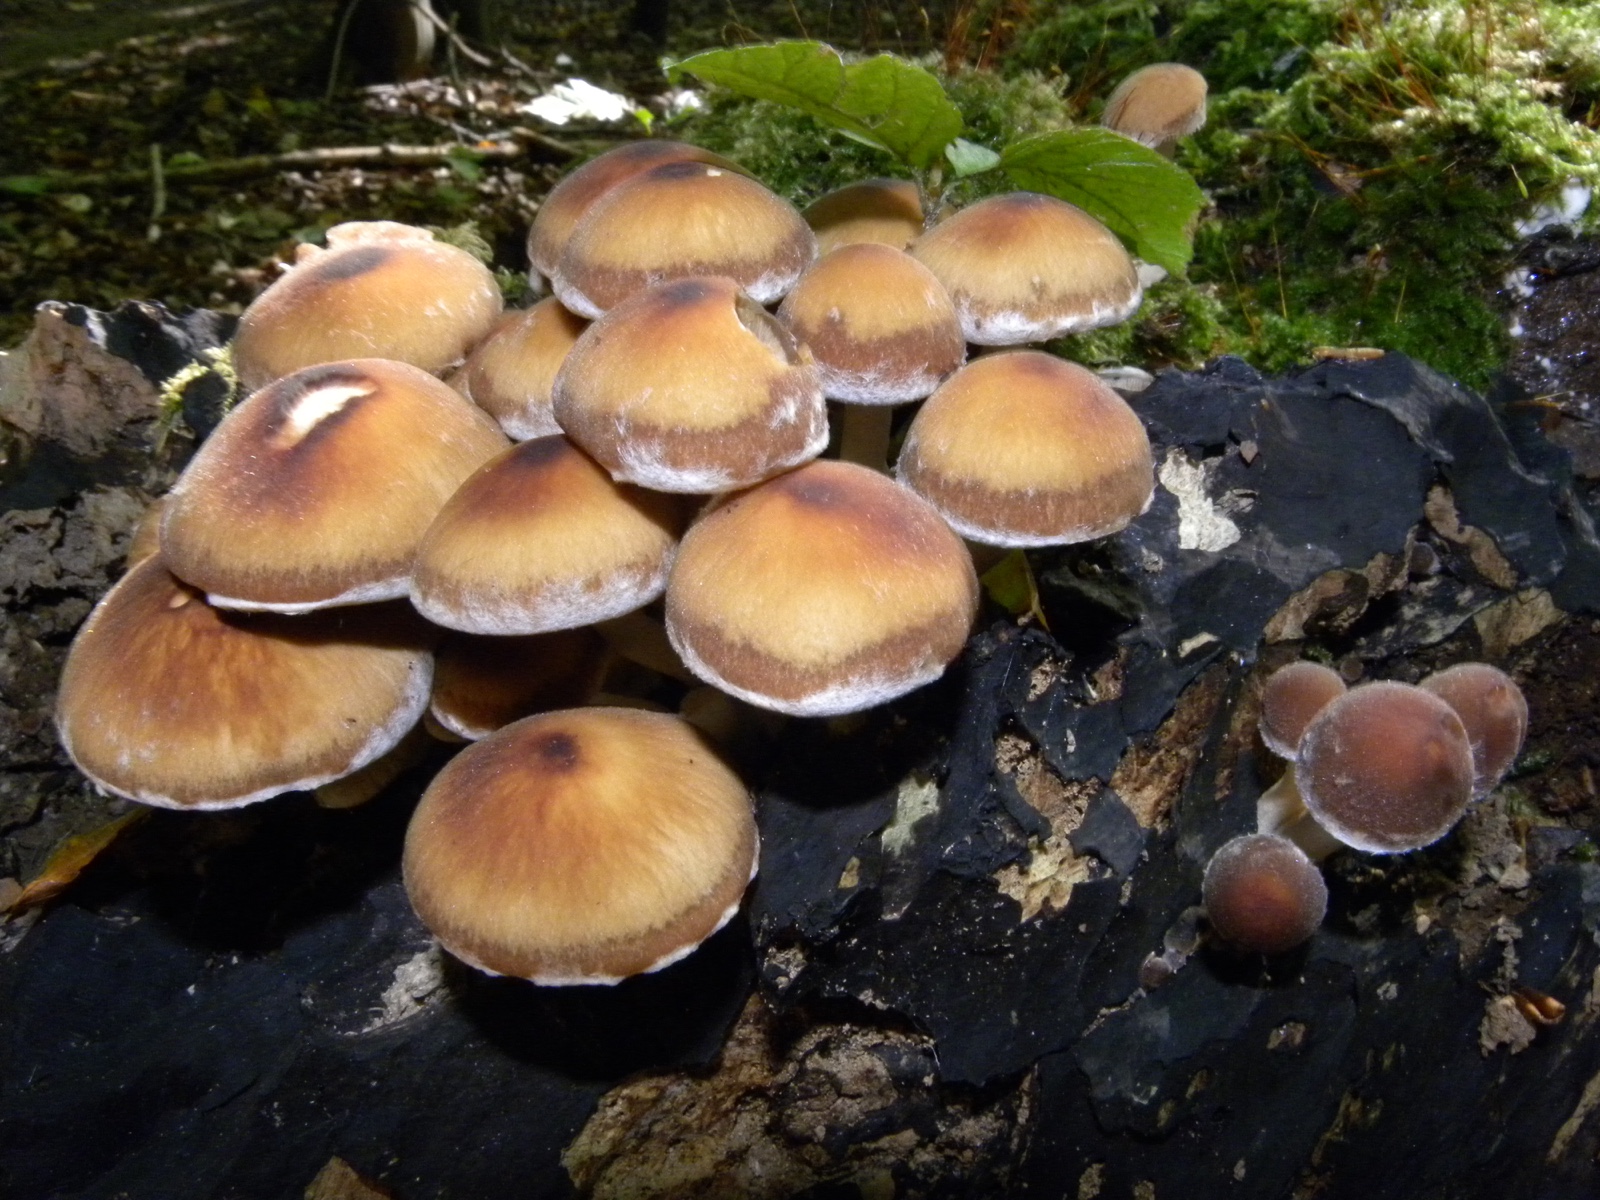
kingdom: Fungi
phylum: Basidiomycota
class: Agaricomycetes
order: Agaricales
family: Psathyrellaceae
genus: Psathyrella
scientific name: Psathyrella piluliformis
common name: lysstokket mørkhat
